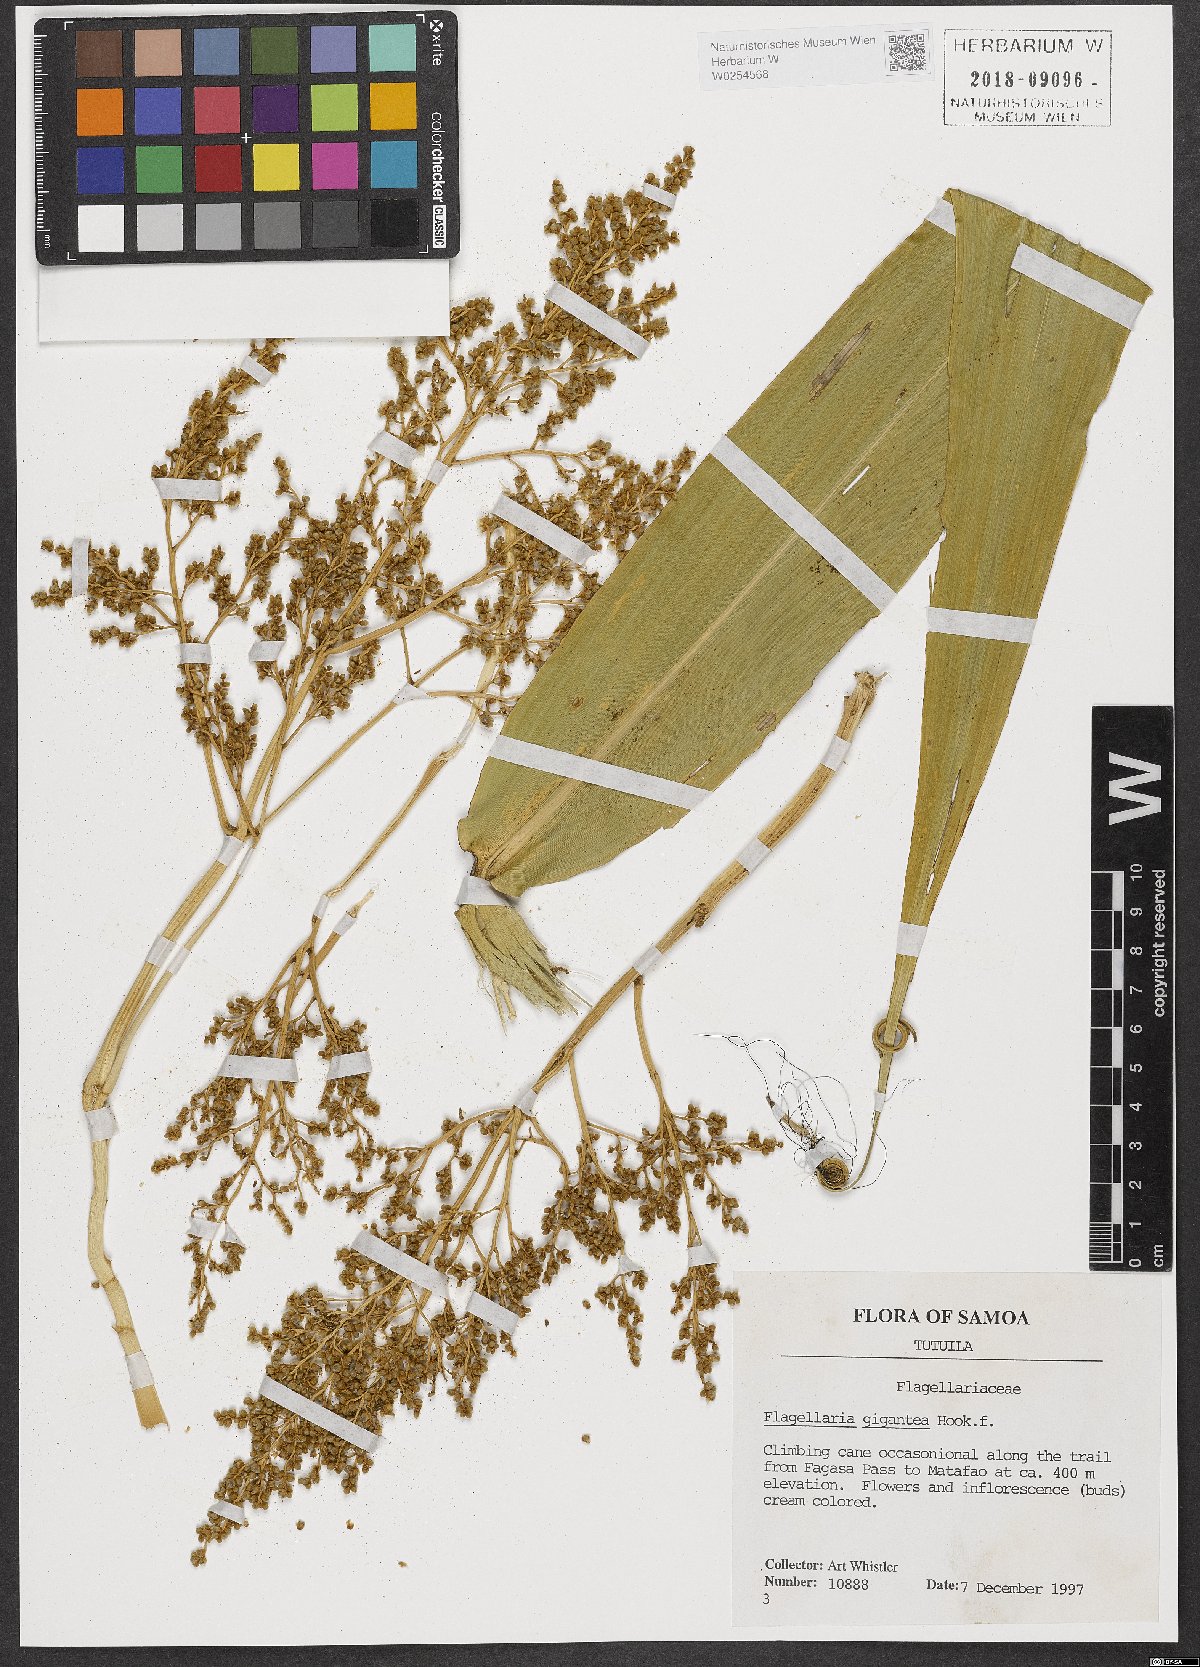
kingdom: Plantae
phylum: Tracheophyta
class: Liliopsida
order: Poales
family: Flagellariaceae
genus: Flagellaria
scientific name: Flagellaria gigantea
